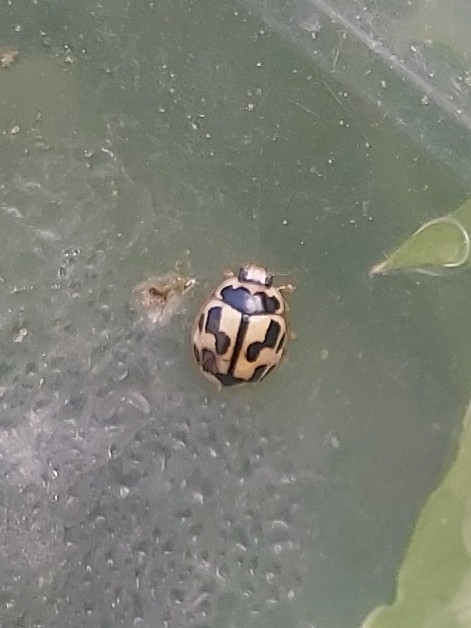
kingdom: Animalia
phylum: Arthropoda
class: Insecta
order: Coleoptera
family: Coccinellidae
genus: Propylaea
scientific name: Propylaea quatuordecimpunctata
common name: Skakbræt
